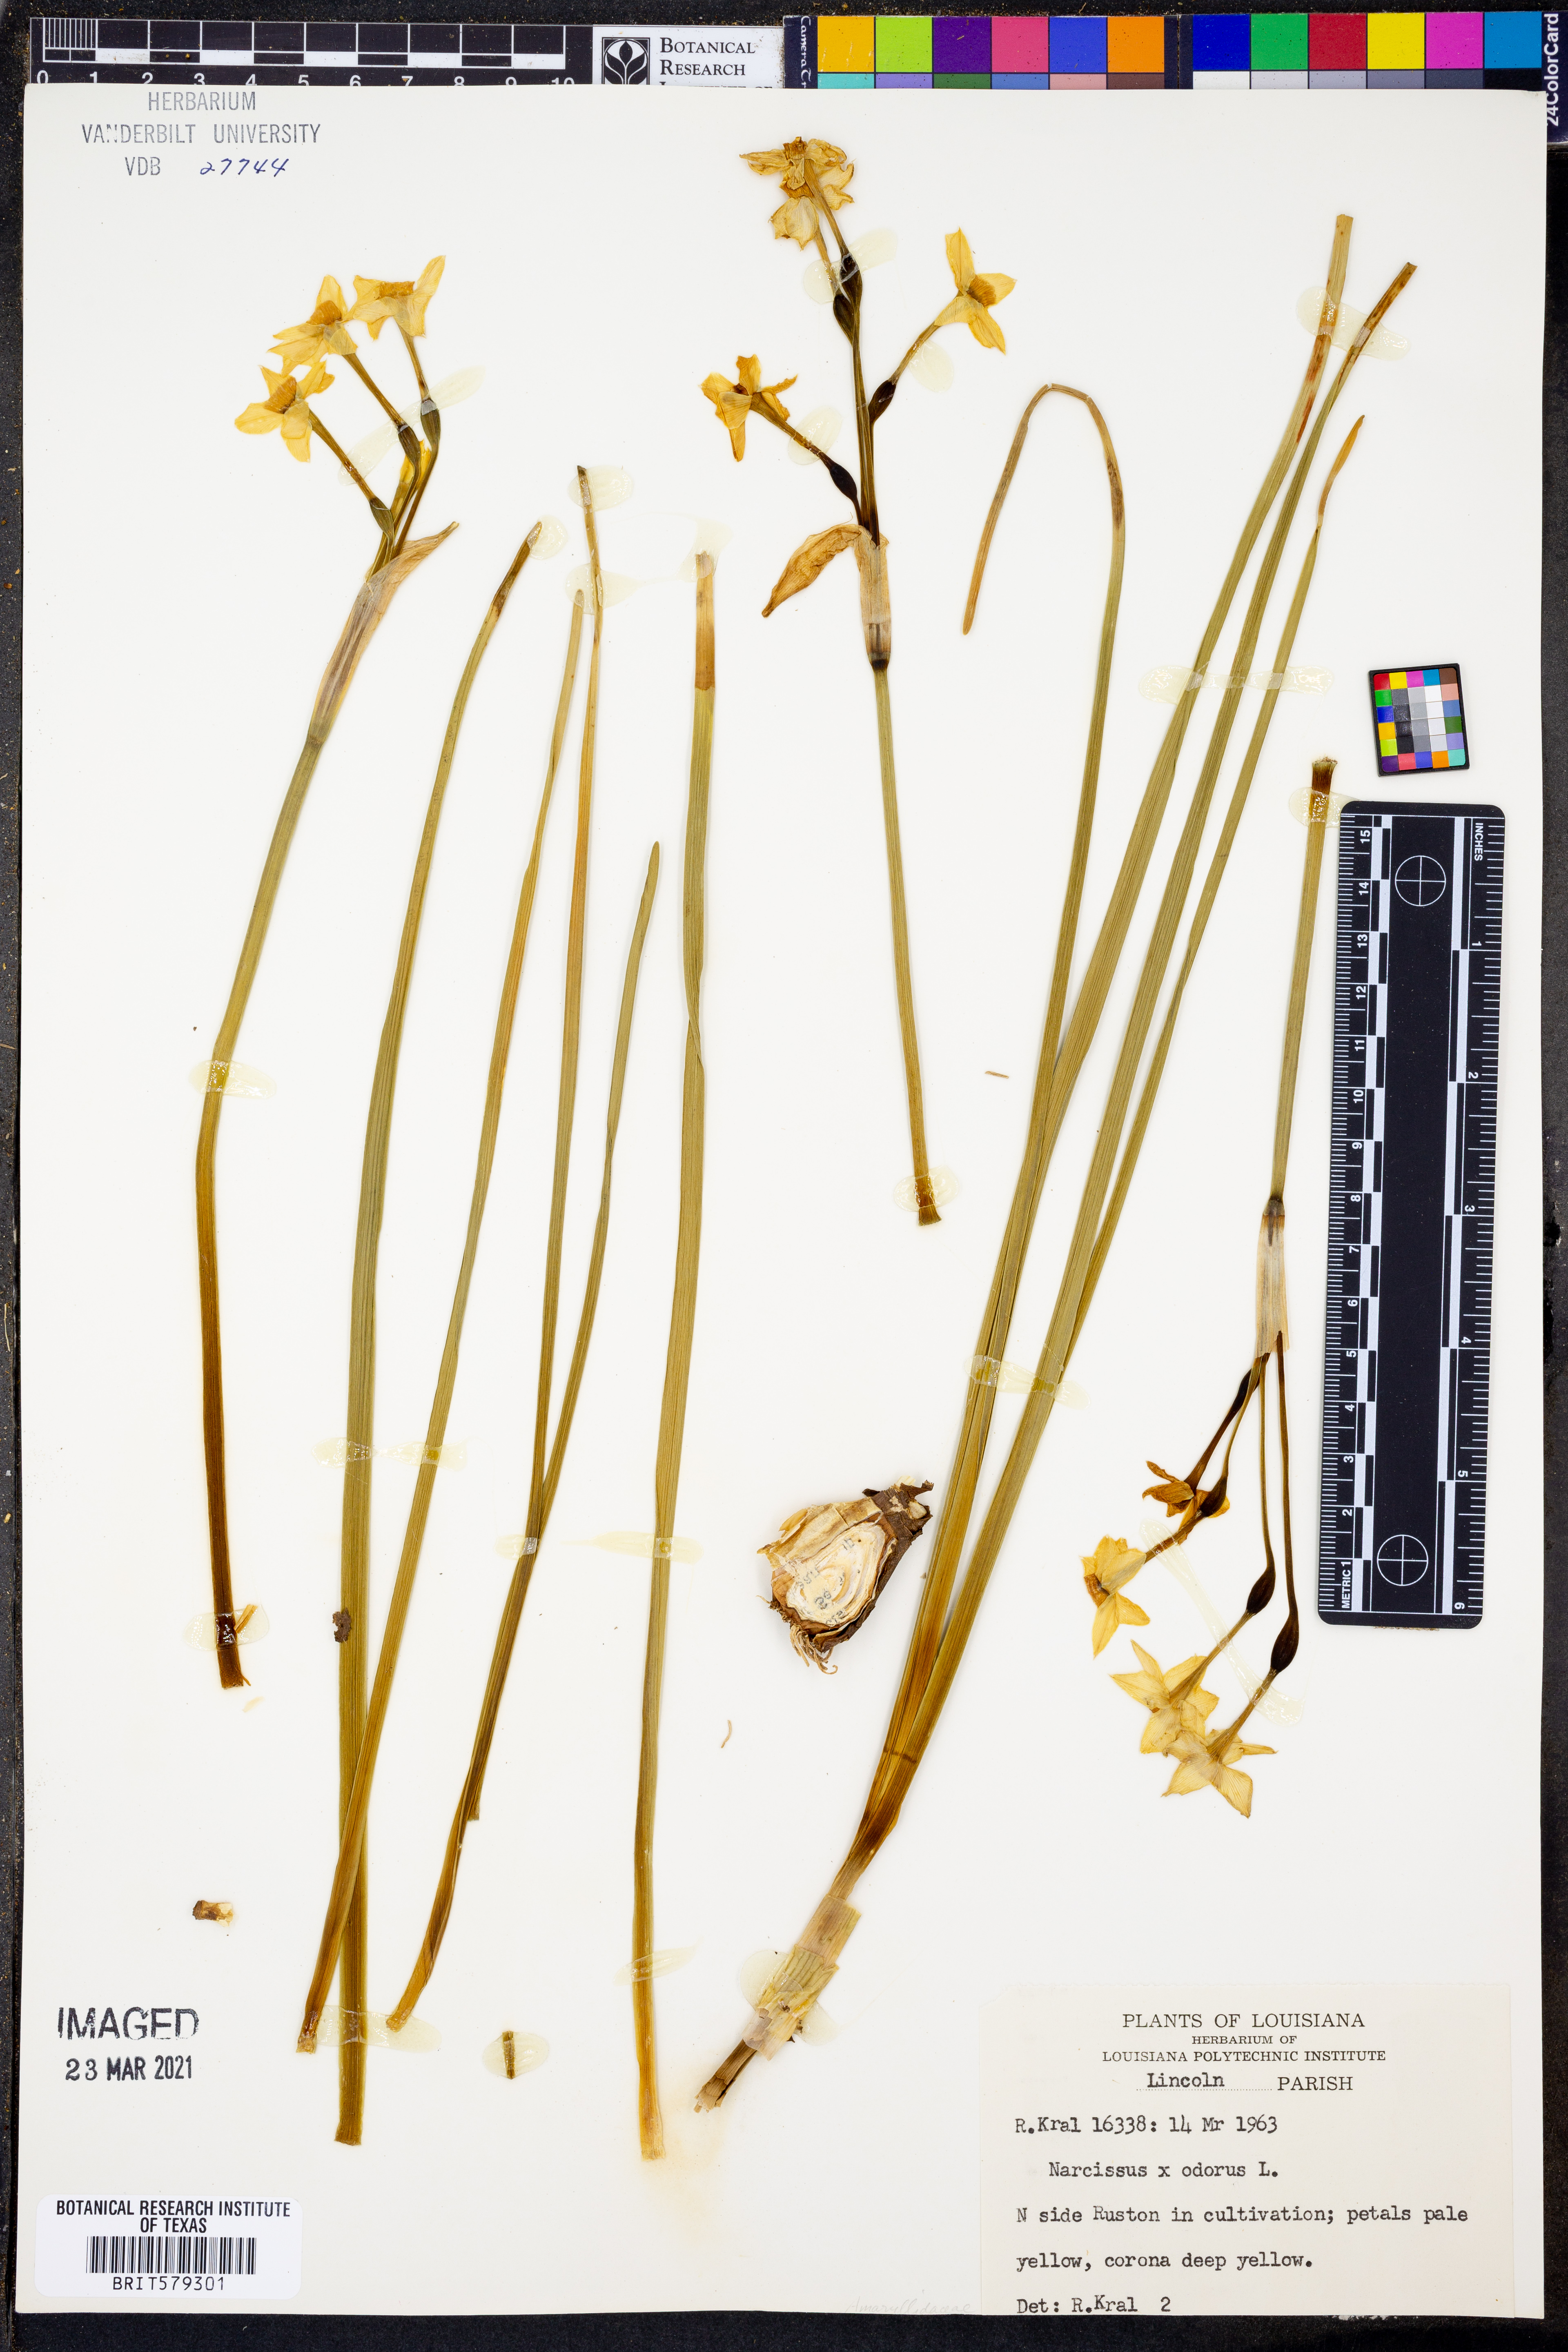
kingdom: Plantae
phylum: Tracheophyta
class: Liliopsida
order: Asparagales
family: Amaryllidaceae
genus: Narcissus
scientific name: Narcissus
